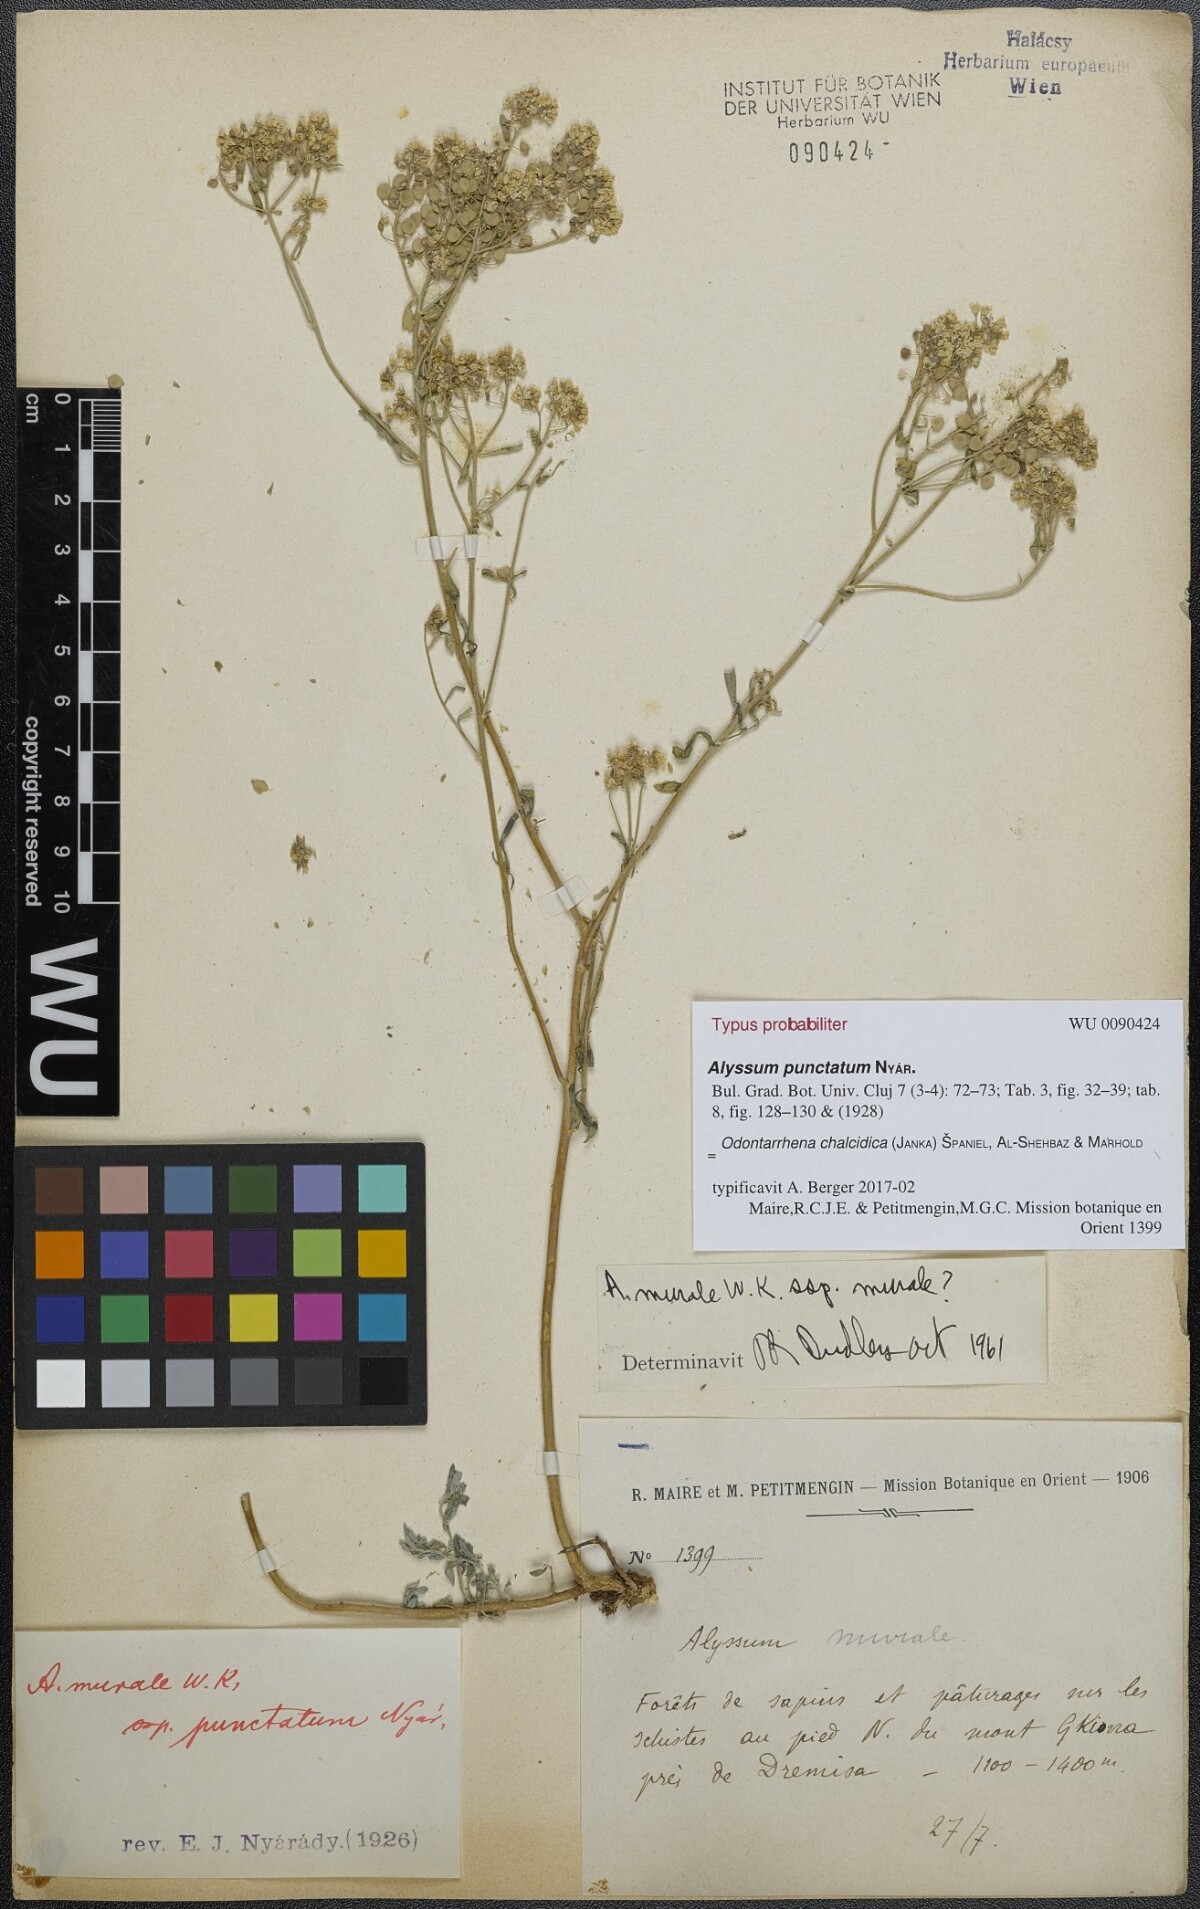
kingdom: Plantae
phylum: Tracheophyta
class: Magnoliopsida
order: Brassicales
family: Brassicaceae
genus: Odontarrhena
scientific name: Odontarrhena muralis
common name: Rock alyssum
